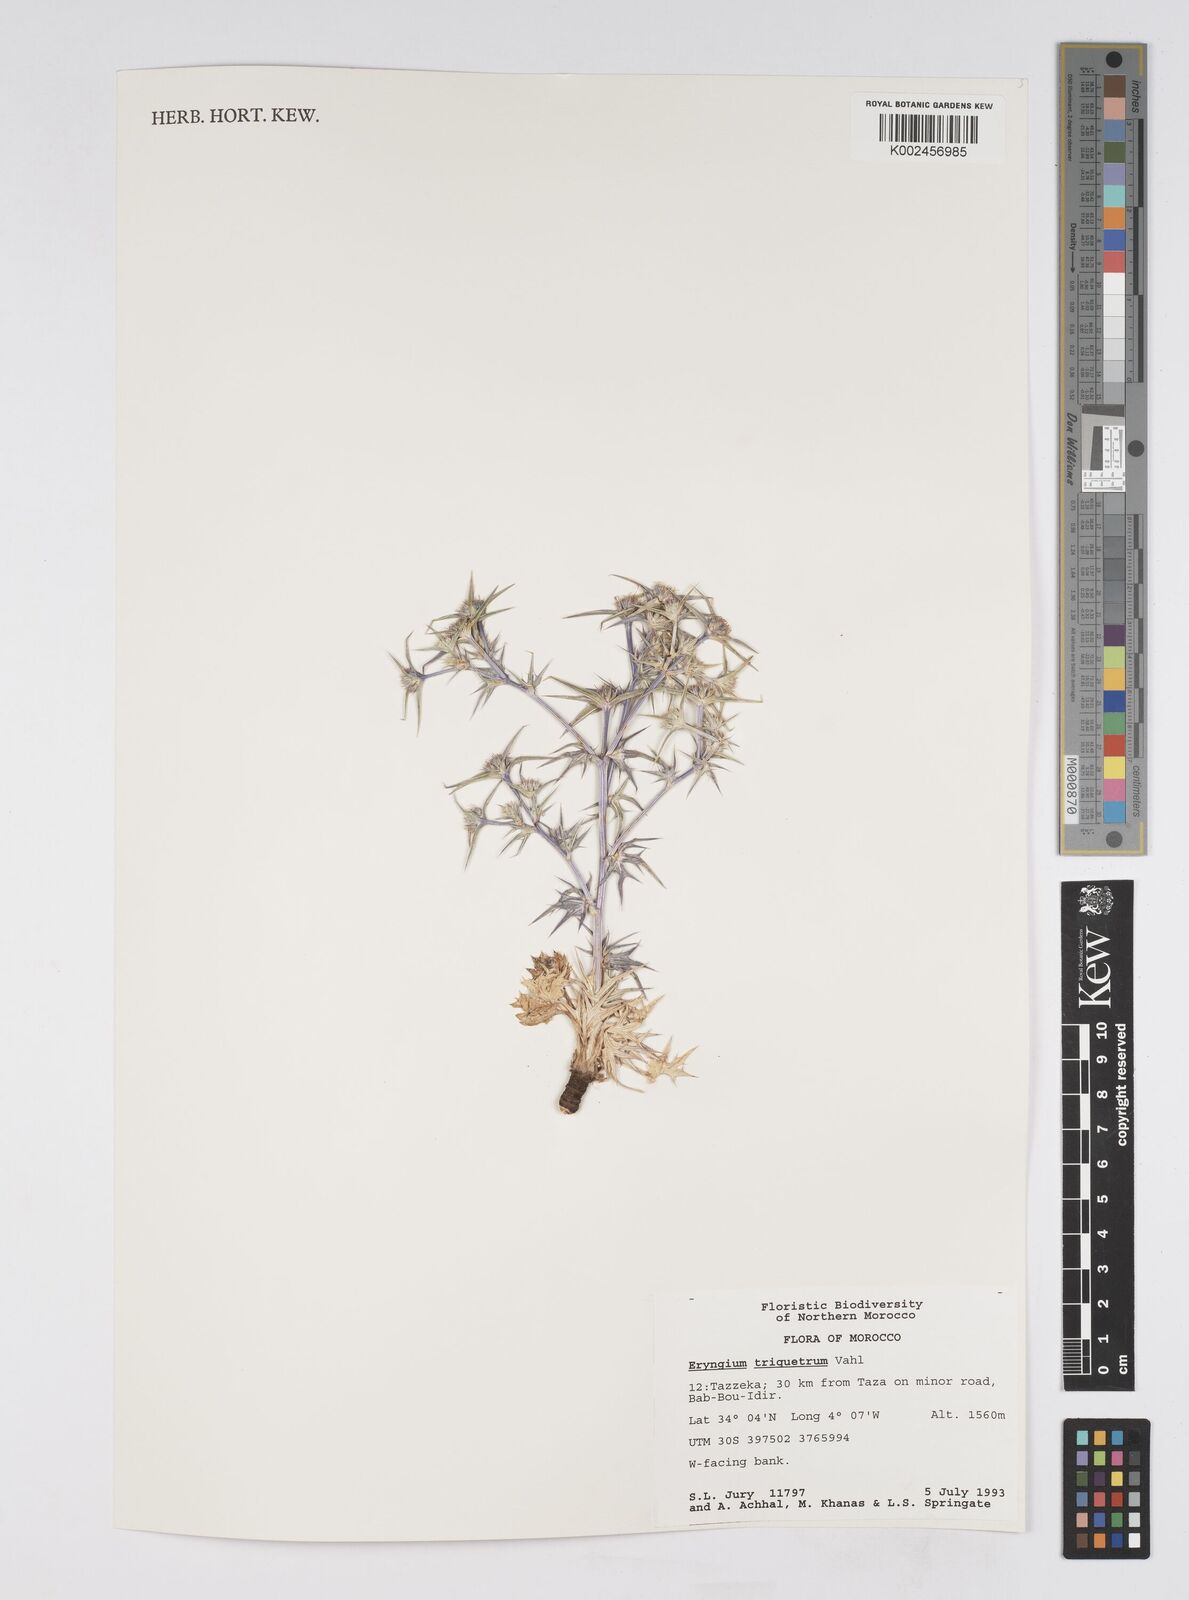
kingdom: Plantae
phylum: Tracheophyta
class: Magnoliopsida
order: Apiales
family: Apiaceae
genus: Eryngium
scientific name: Eryngium triquetrum
